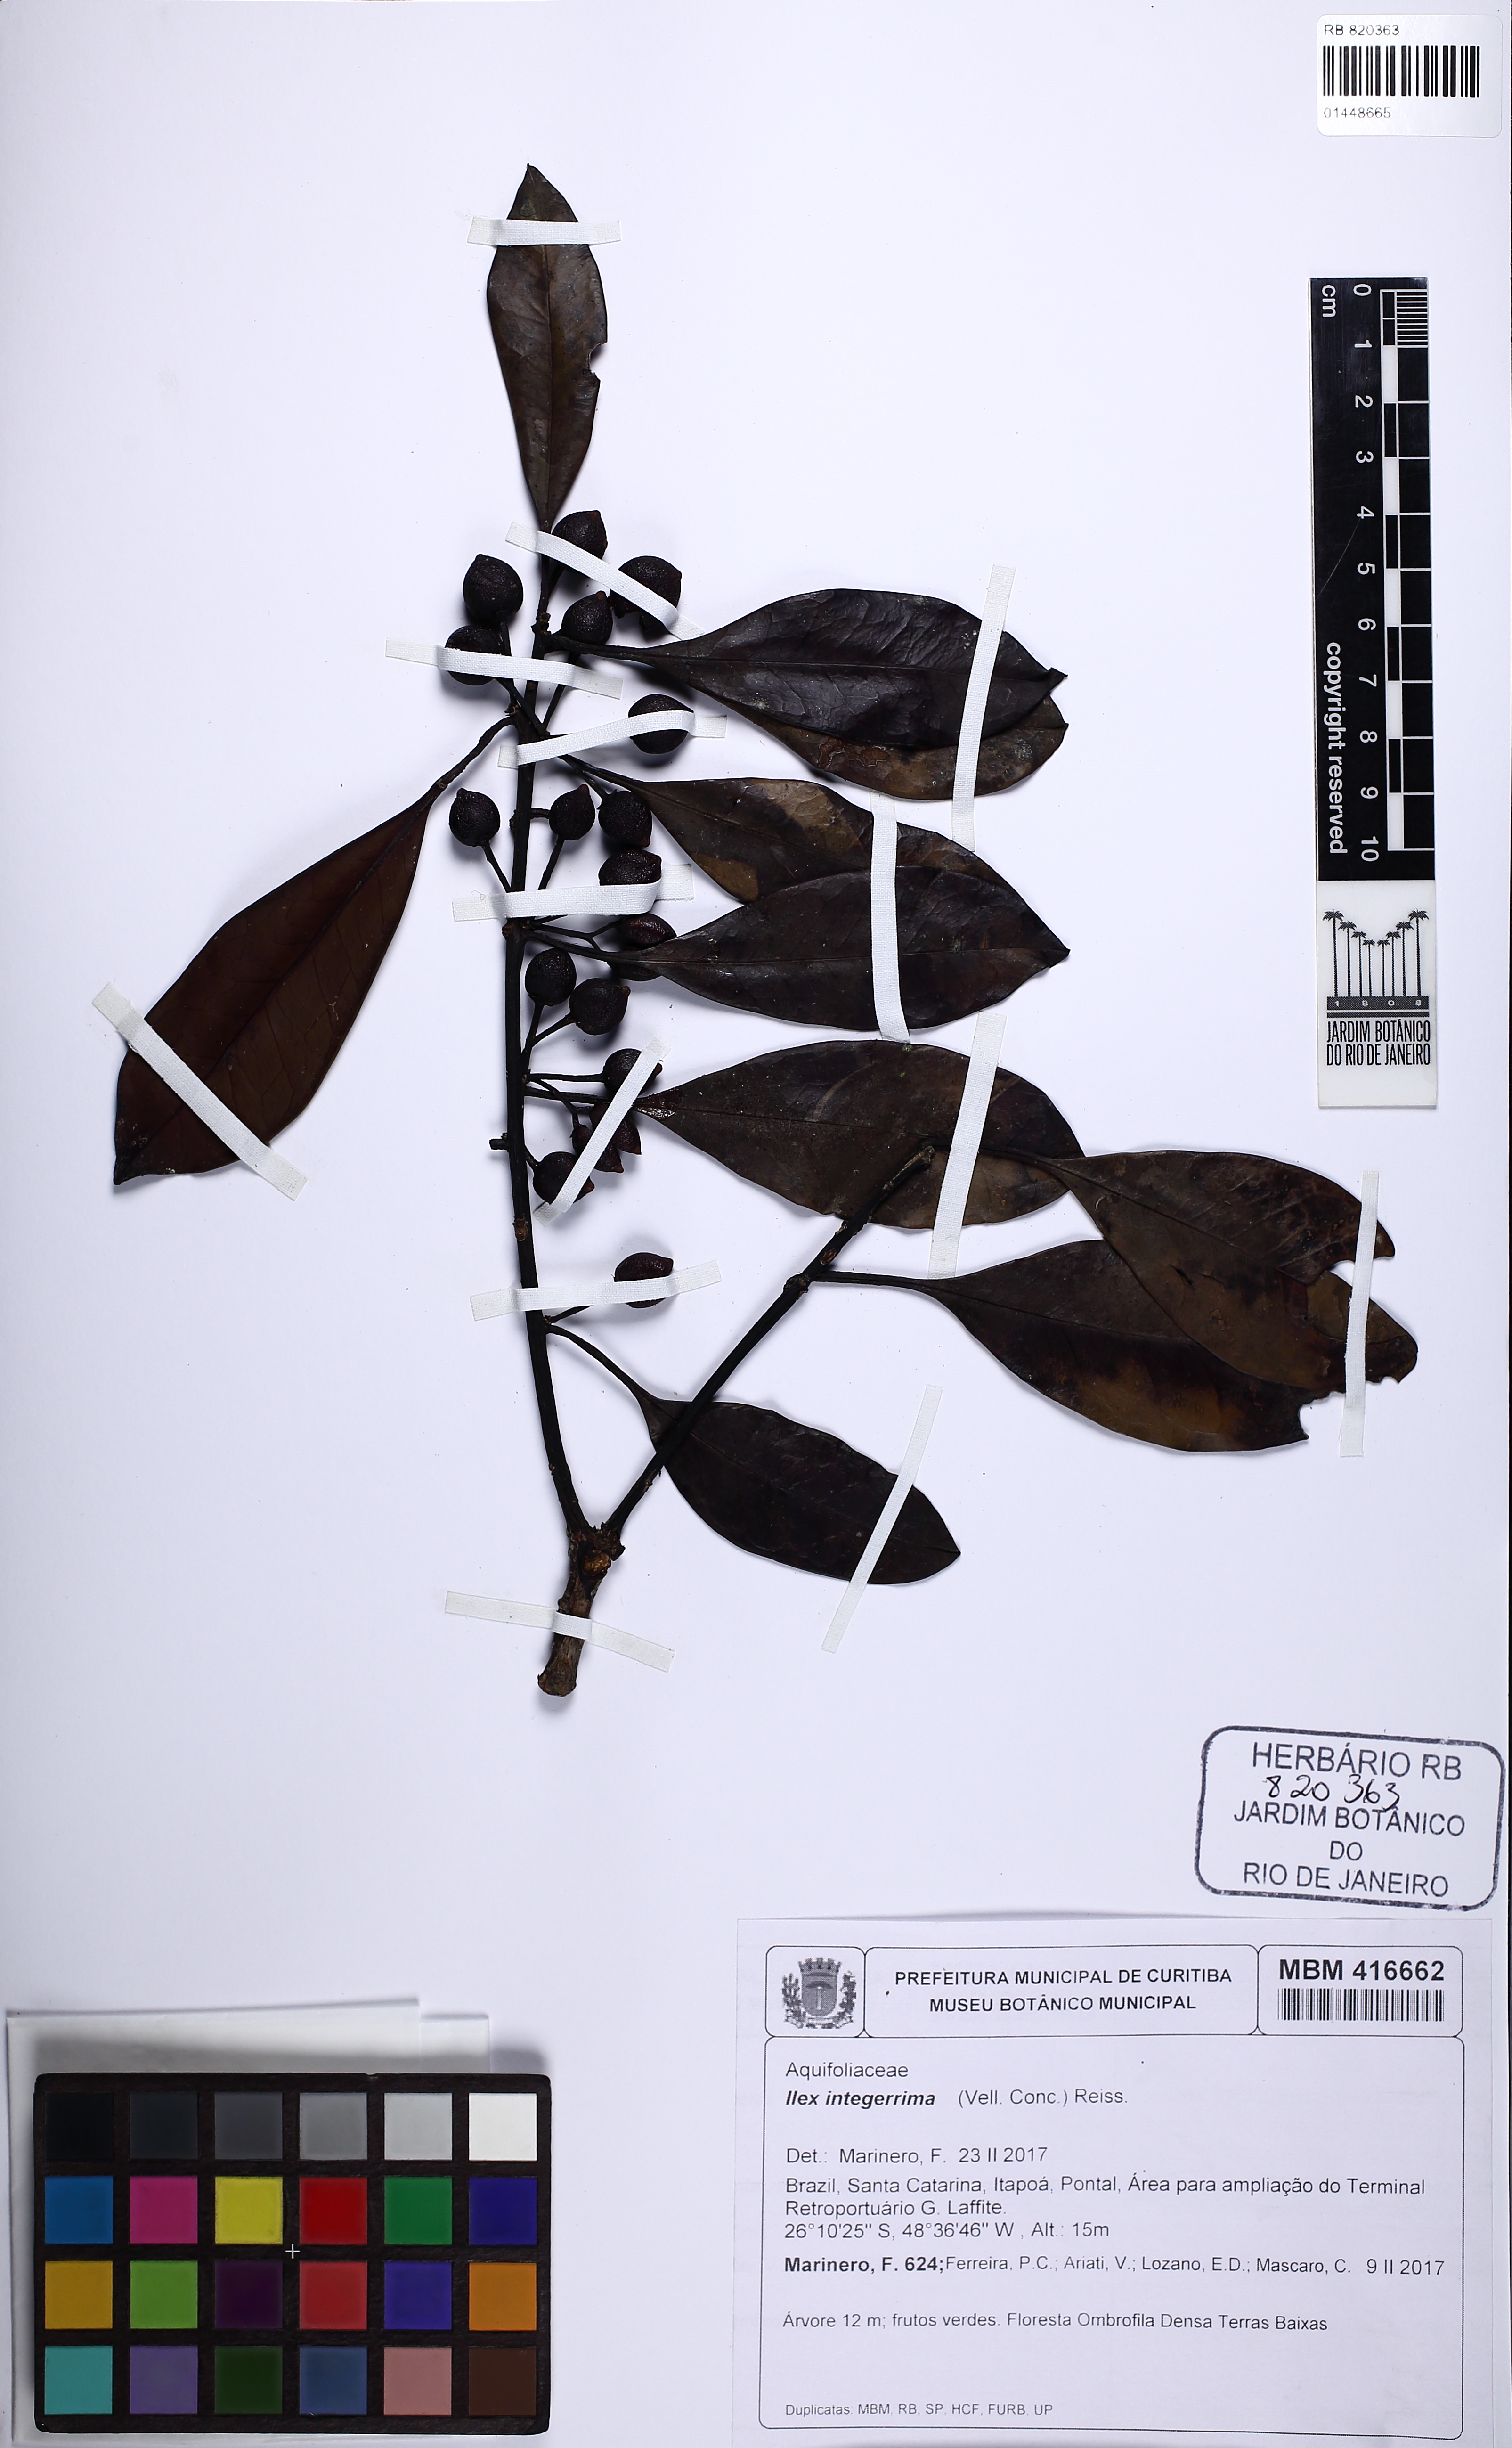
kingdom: Plantae
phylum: Tracheophyta
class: Magnoliopsida
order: Aquifoliales
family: Aquifoliaceae
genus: Ilex
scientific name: Ilex integerrima
